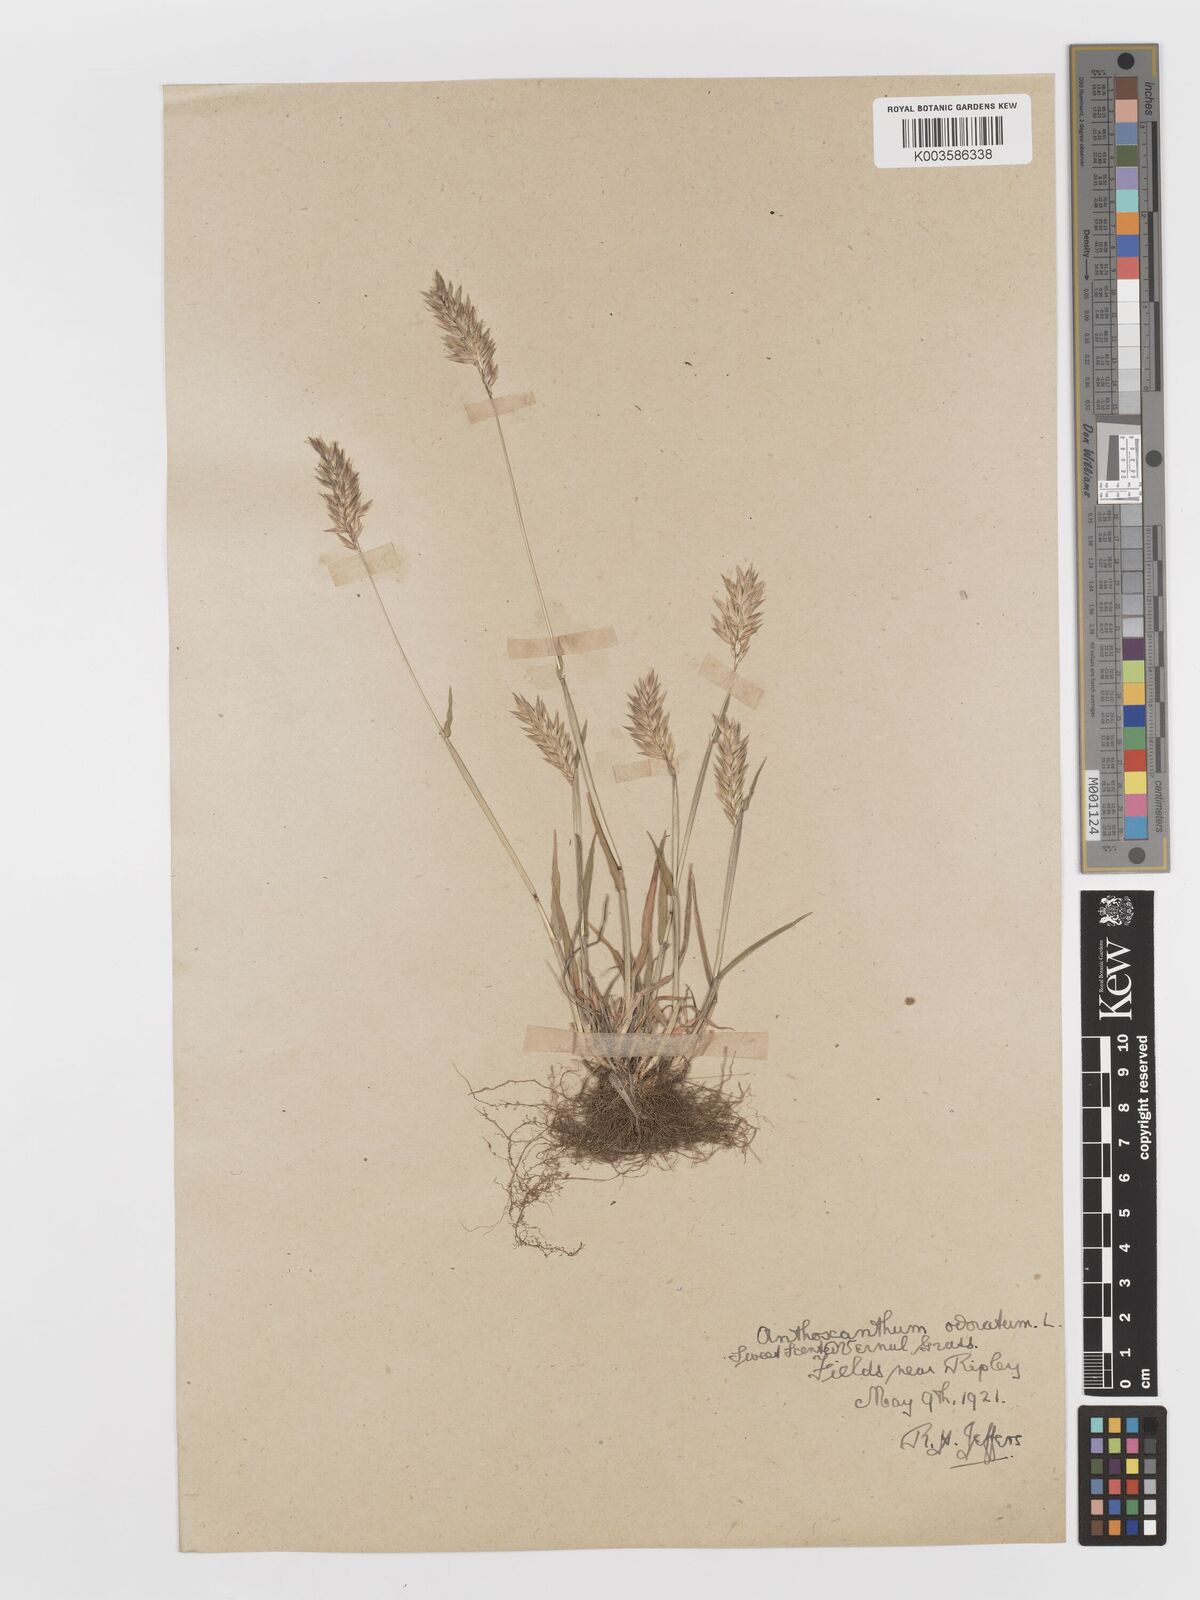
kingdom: Plantae
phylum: Tracheophyta
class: Liliopsida
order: Poales
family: Poaceae
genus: Anthoxanthum
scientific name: Anthoxanthum odoratum
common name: Sweet vernalgrass
